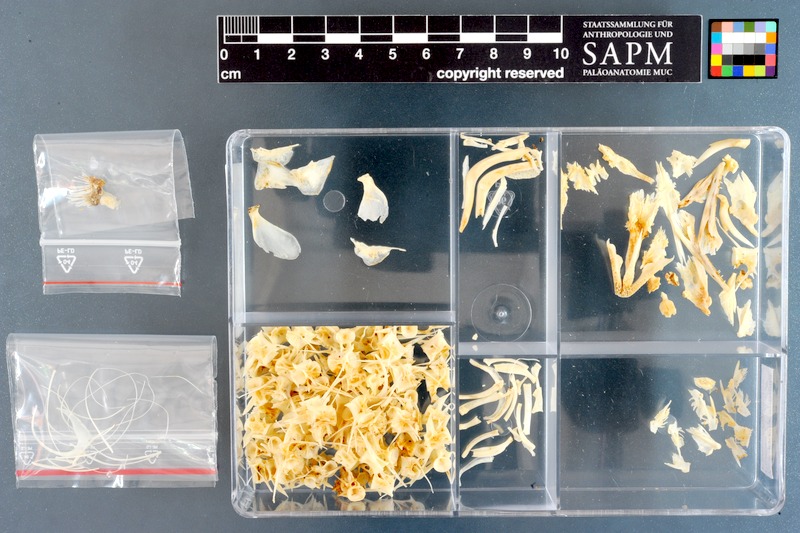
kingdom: Animalia
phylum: Chordata
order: Anguilliformes
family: Anguillidae
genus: Anguilla
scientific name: Anguilla anguilla
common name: European eel
